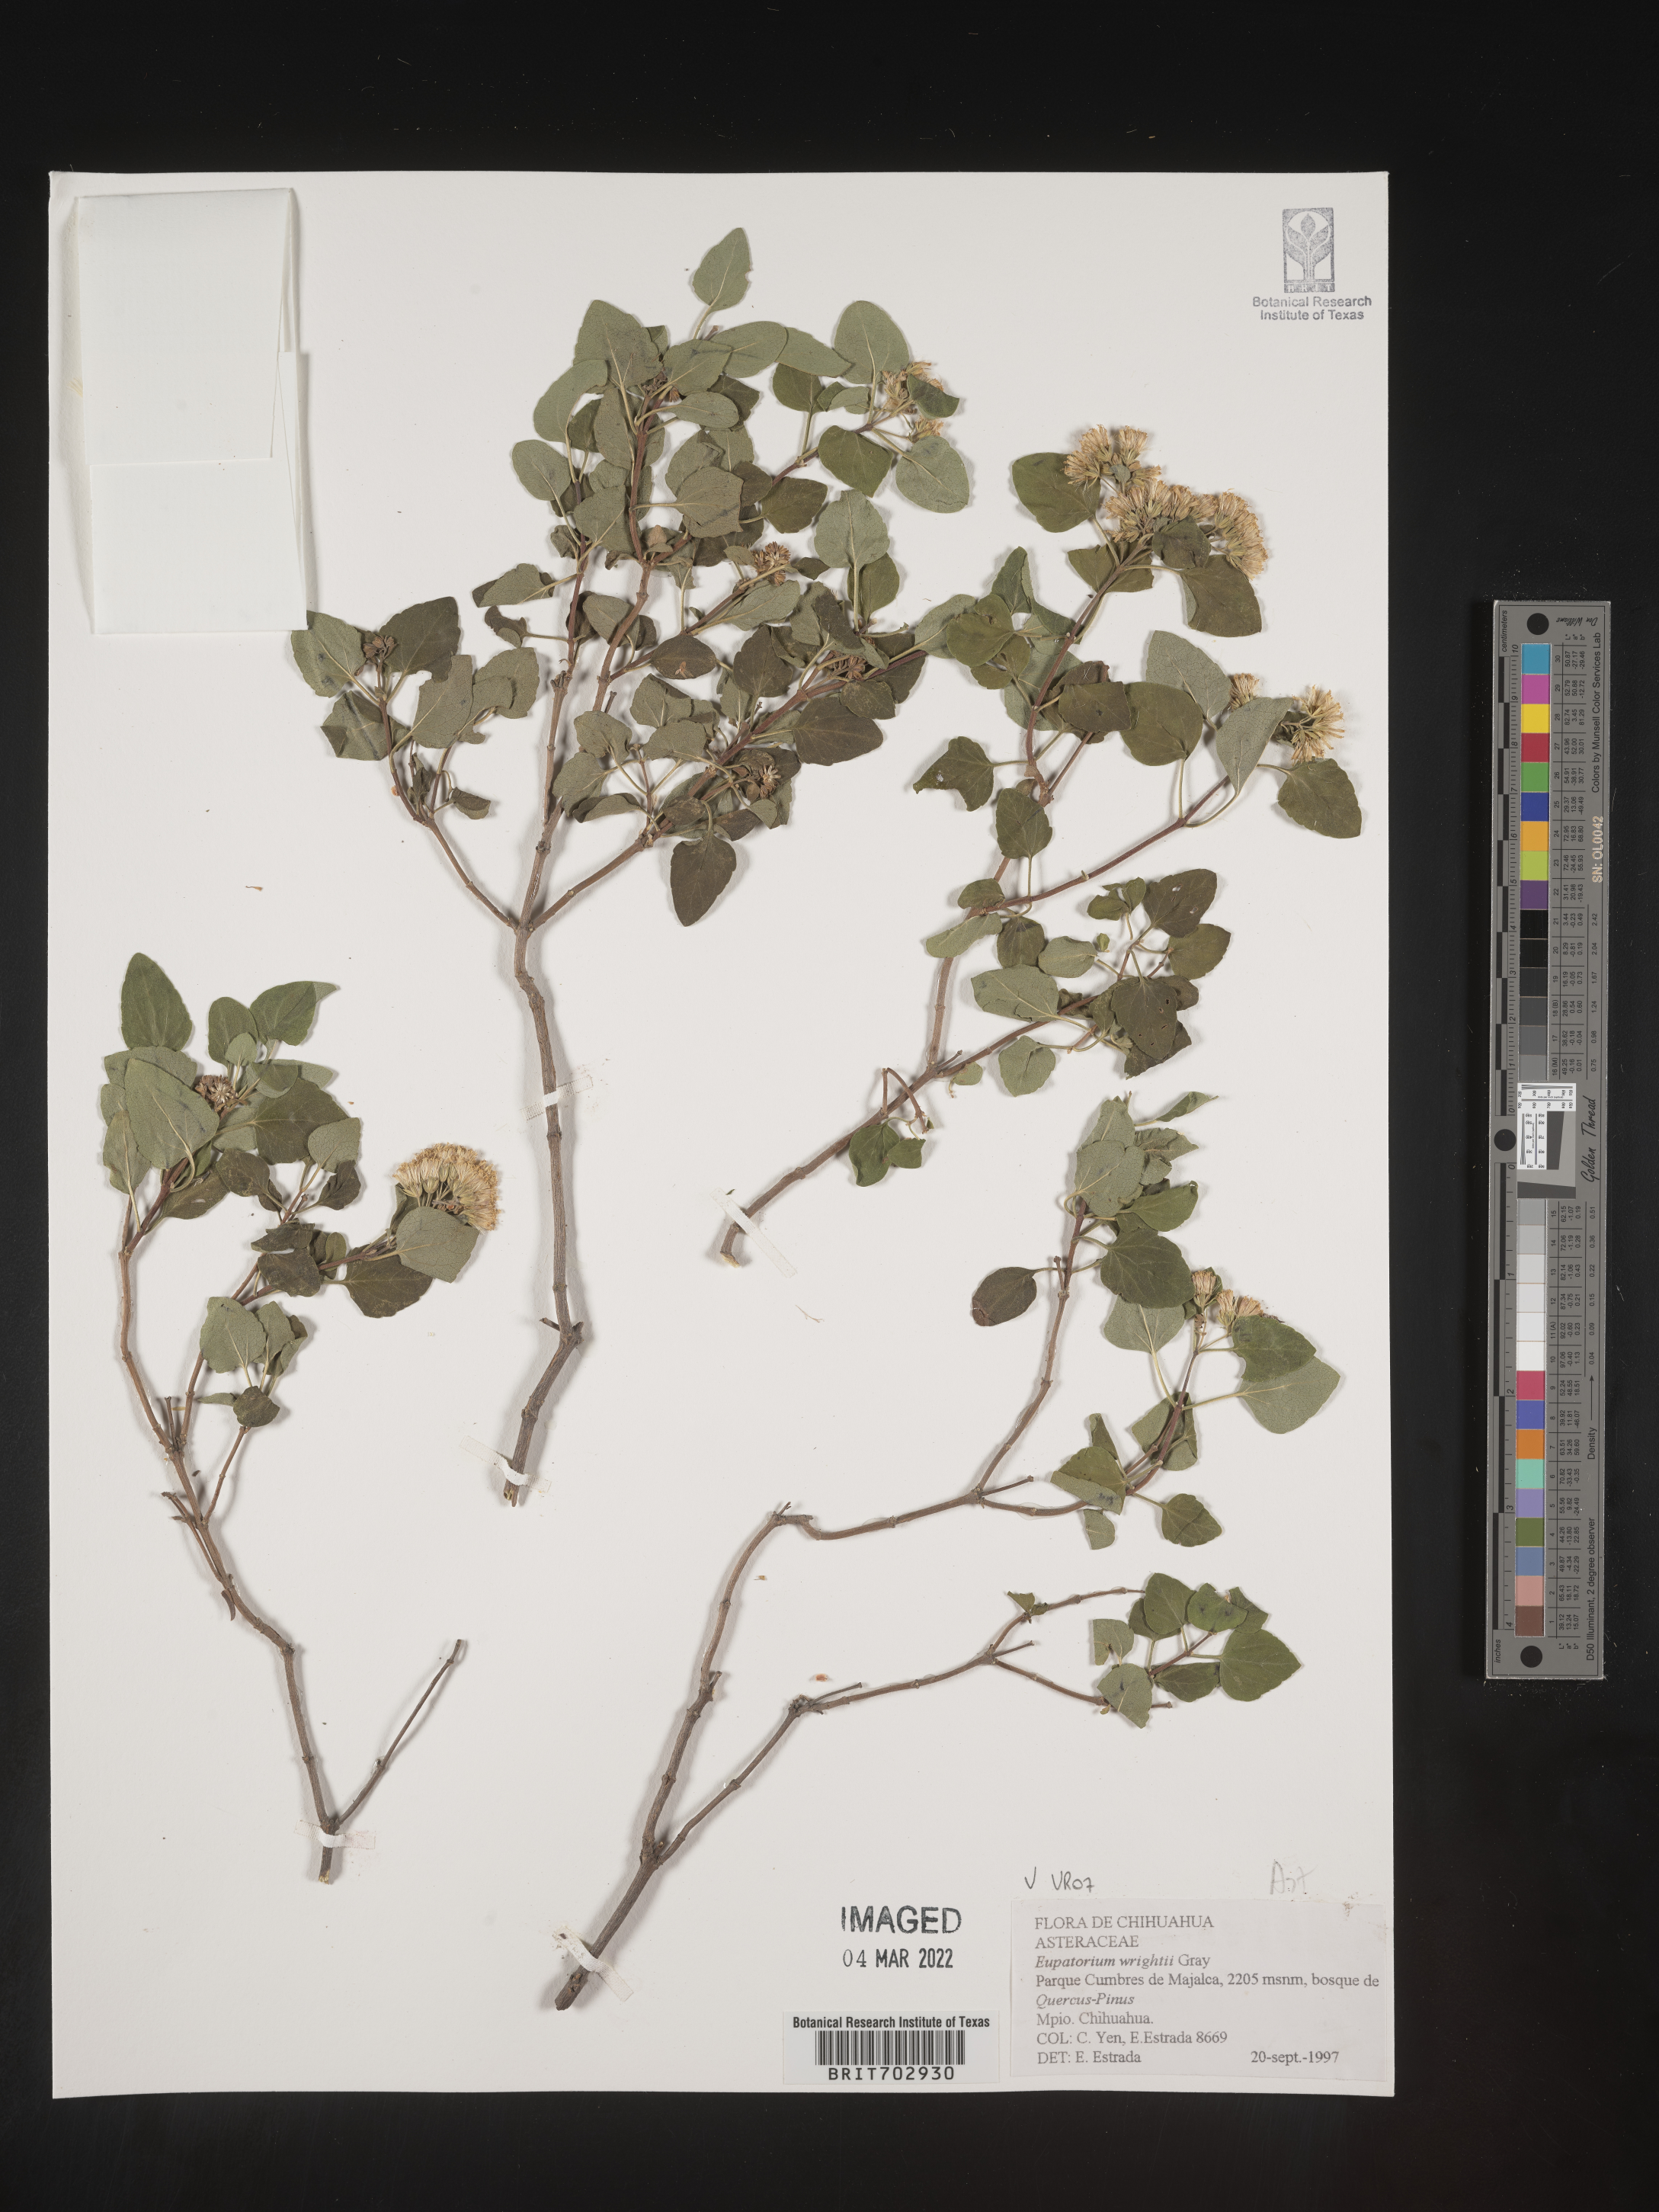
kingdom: Plantae
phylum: Tracheophyta
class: Magnoliopsida
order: Asterales
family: Asteraceae
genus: Eupatorium
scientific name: Eupatorium
